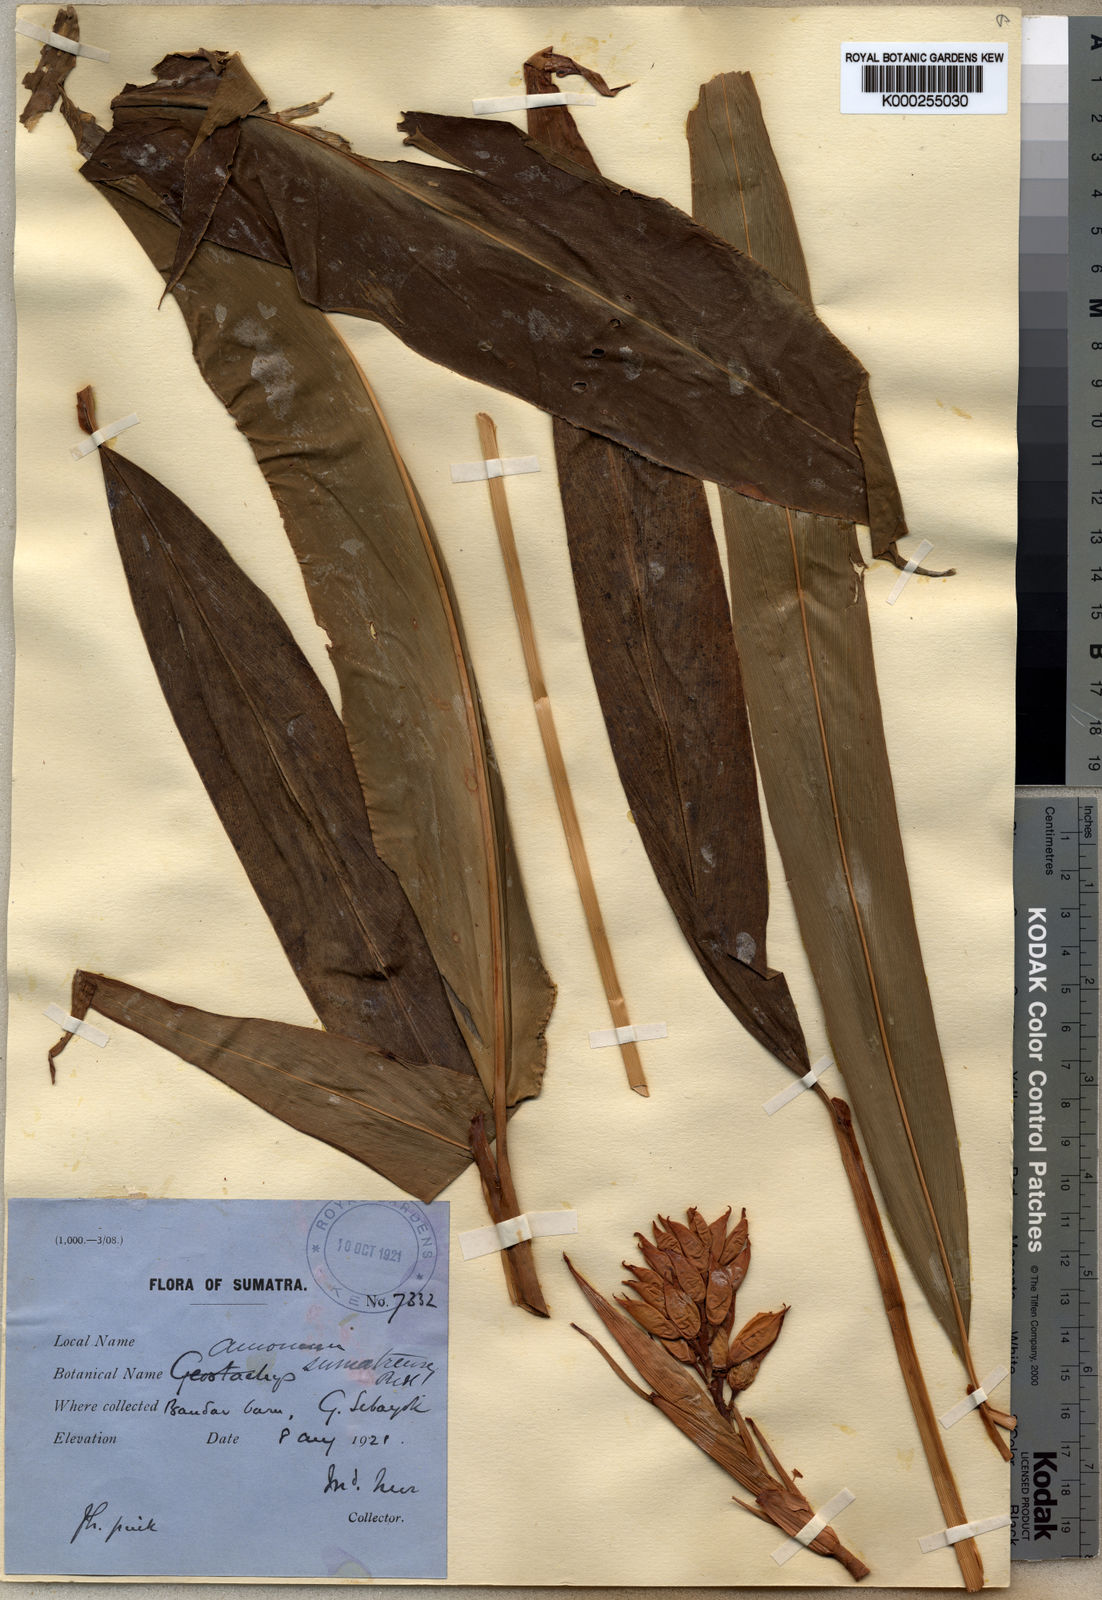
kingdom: Plantae
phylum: Tracheophyta
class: Liliopsida
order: Zingiberales
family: Zingiberaceae
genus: Geostachys
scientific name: Geostachys sumatrana
